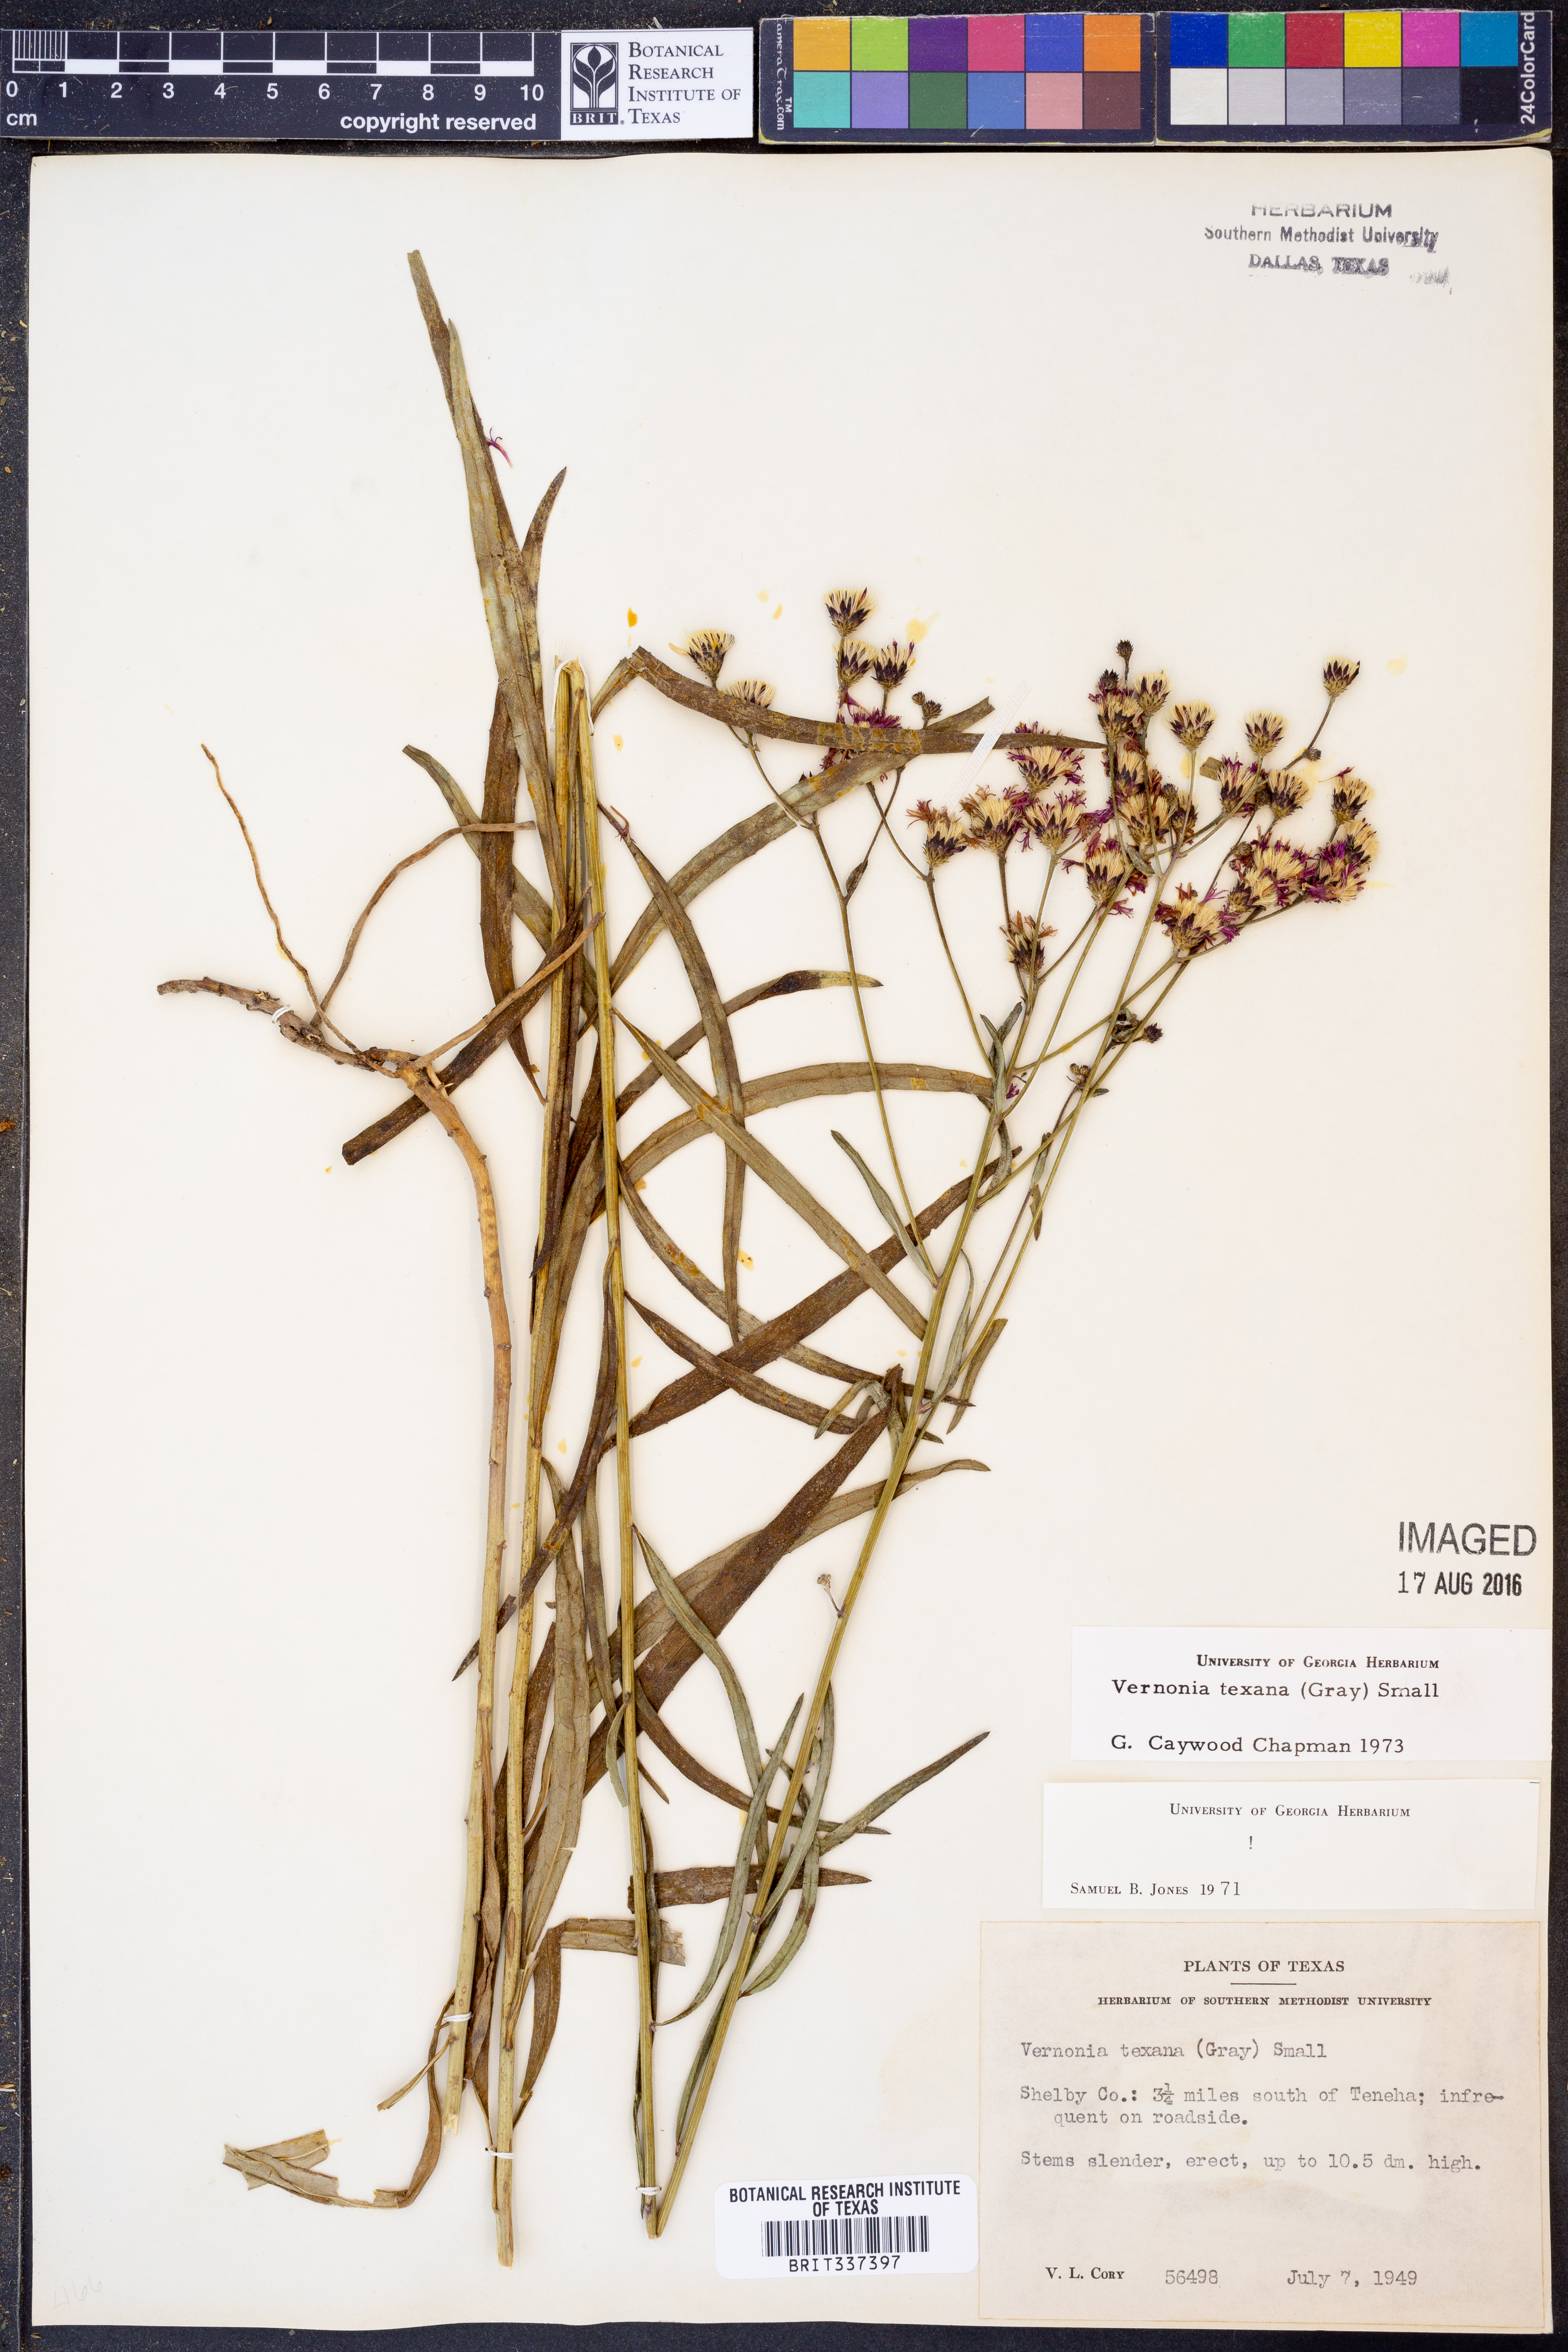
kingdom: Plantae
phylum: Tracheophyta
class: Magnoliopsida
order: Asterales
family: Asteraceae
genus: Vernonia
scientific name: Vernonia texana
